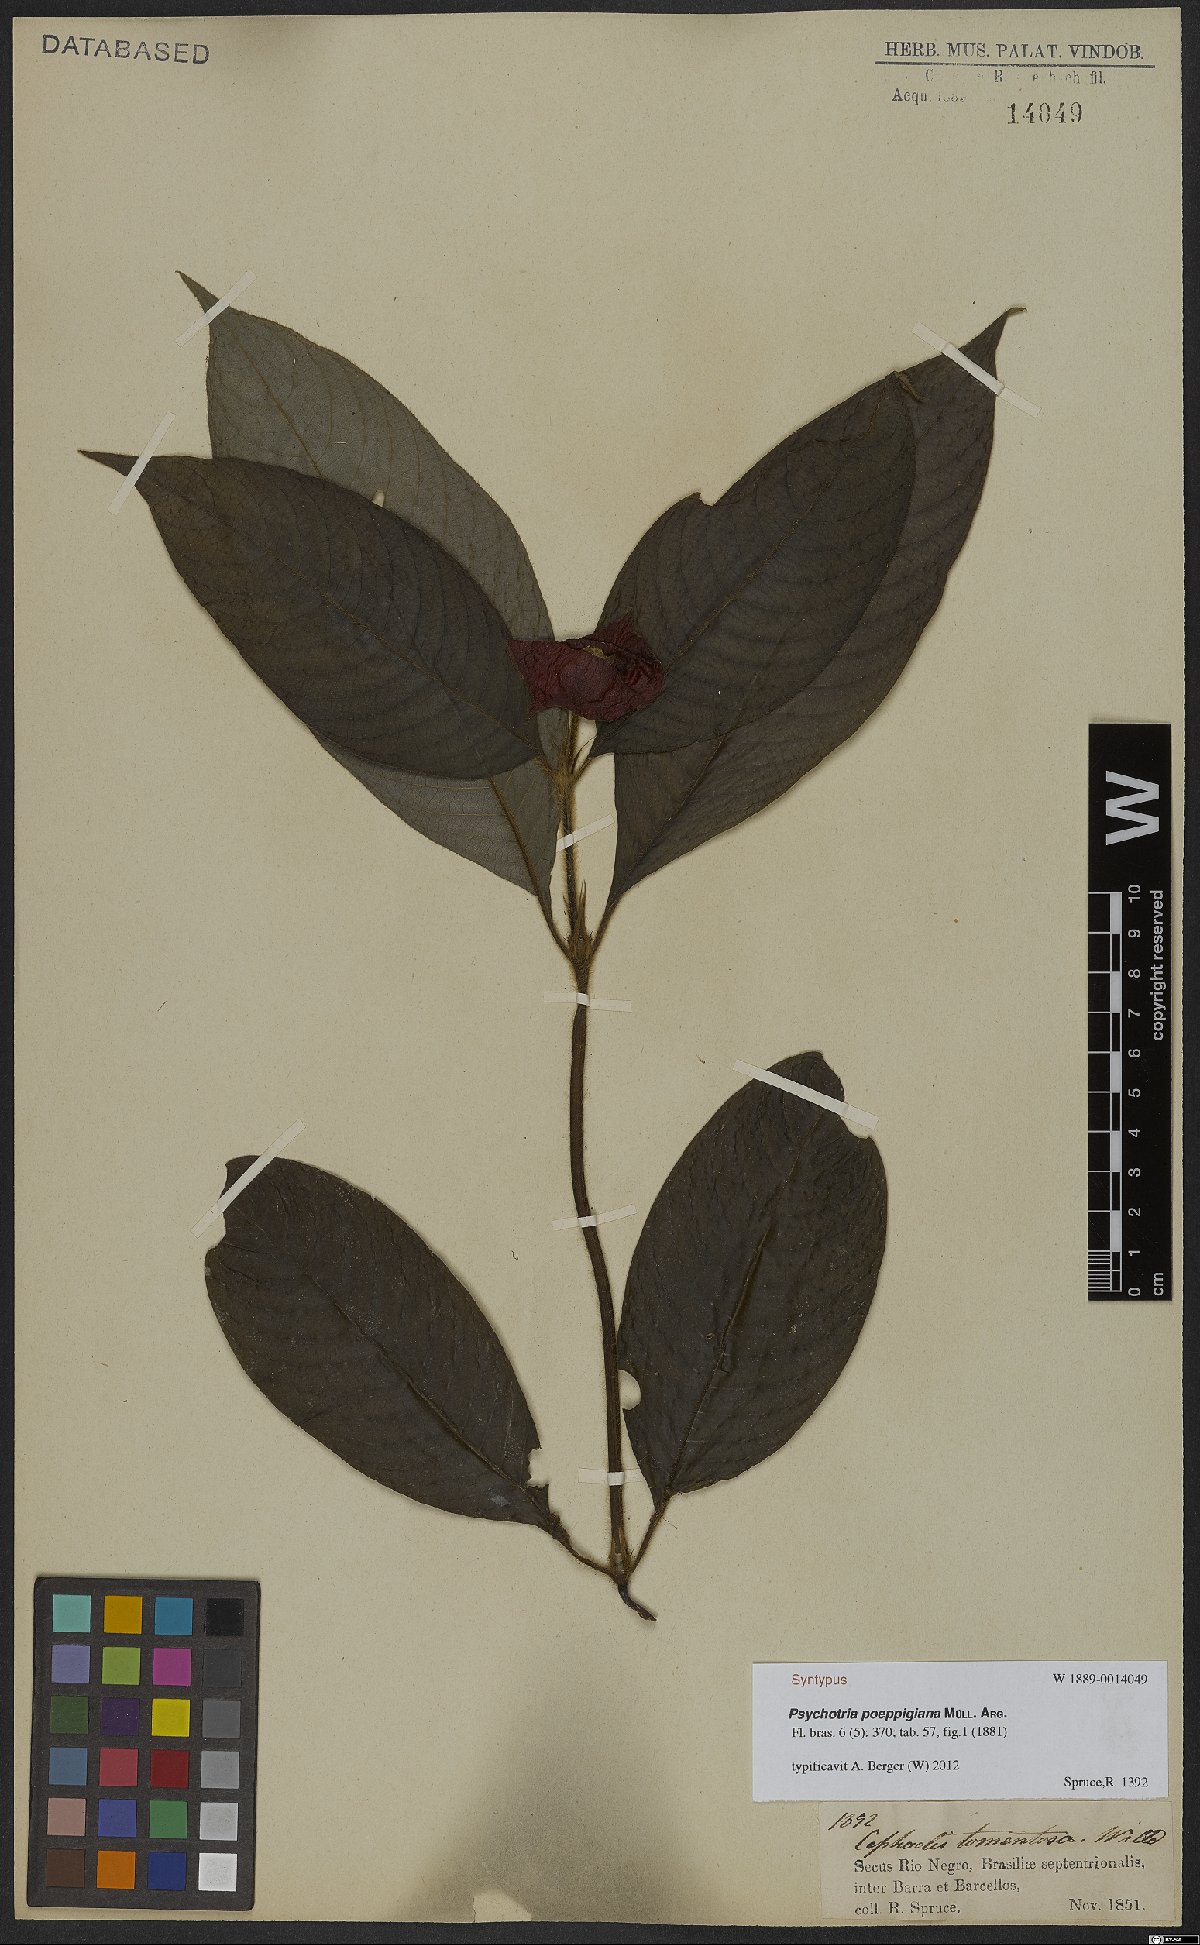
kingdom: Plantae
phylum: Tracheophyta
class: Magnoliopsida
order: Gentianales
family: Rubiaceae
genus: Palicourea
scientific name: Palicourea tomentosa
